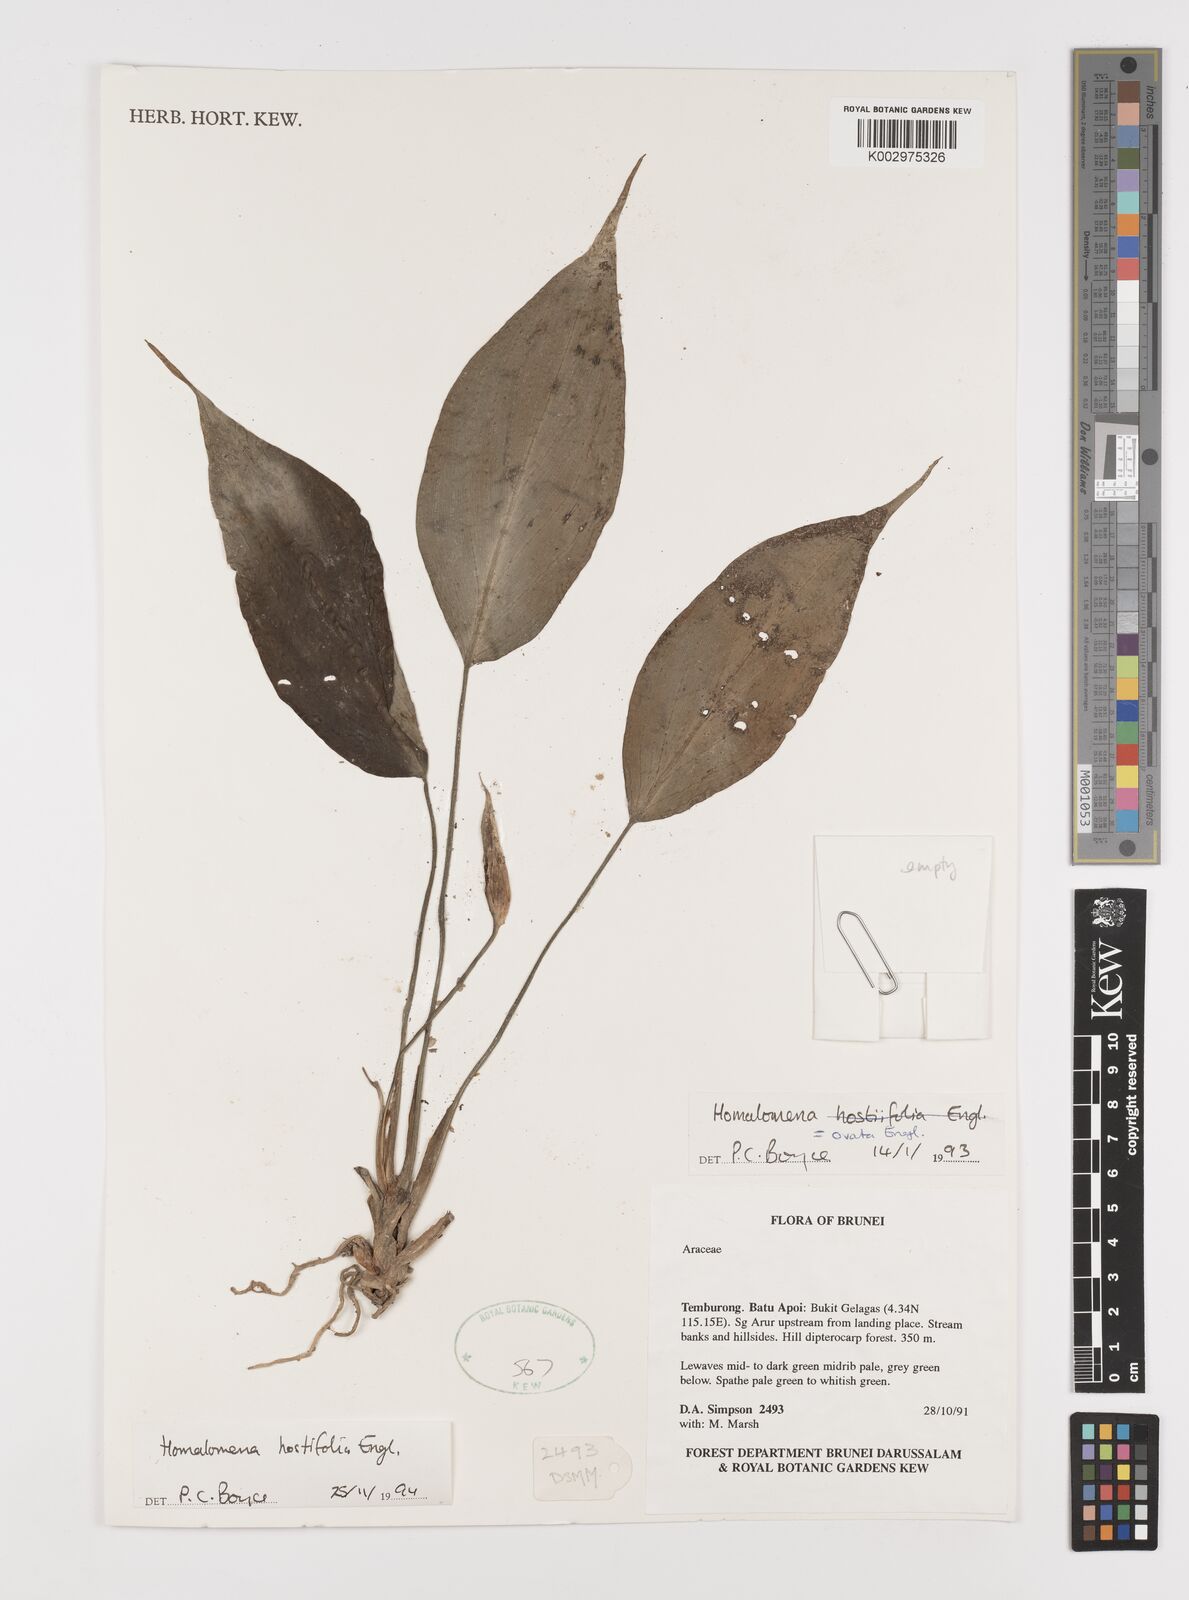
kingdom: Plantae
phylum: Tracheophyta
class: Liliopsida
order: Alismatales
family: Araceae
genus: Homalomena
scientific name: Homalomena ovata
